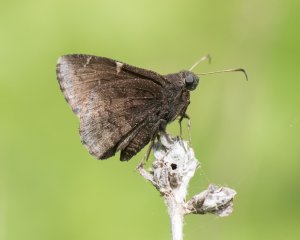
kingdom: Animalia
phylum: Arthropoda
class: Insecta
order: Lepidoptera
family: Hesperiidae
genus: Autochton
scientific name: Autochton
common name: Northern Cloudywing
